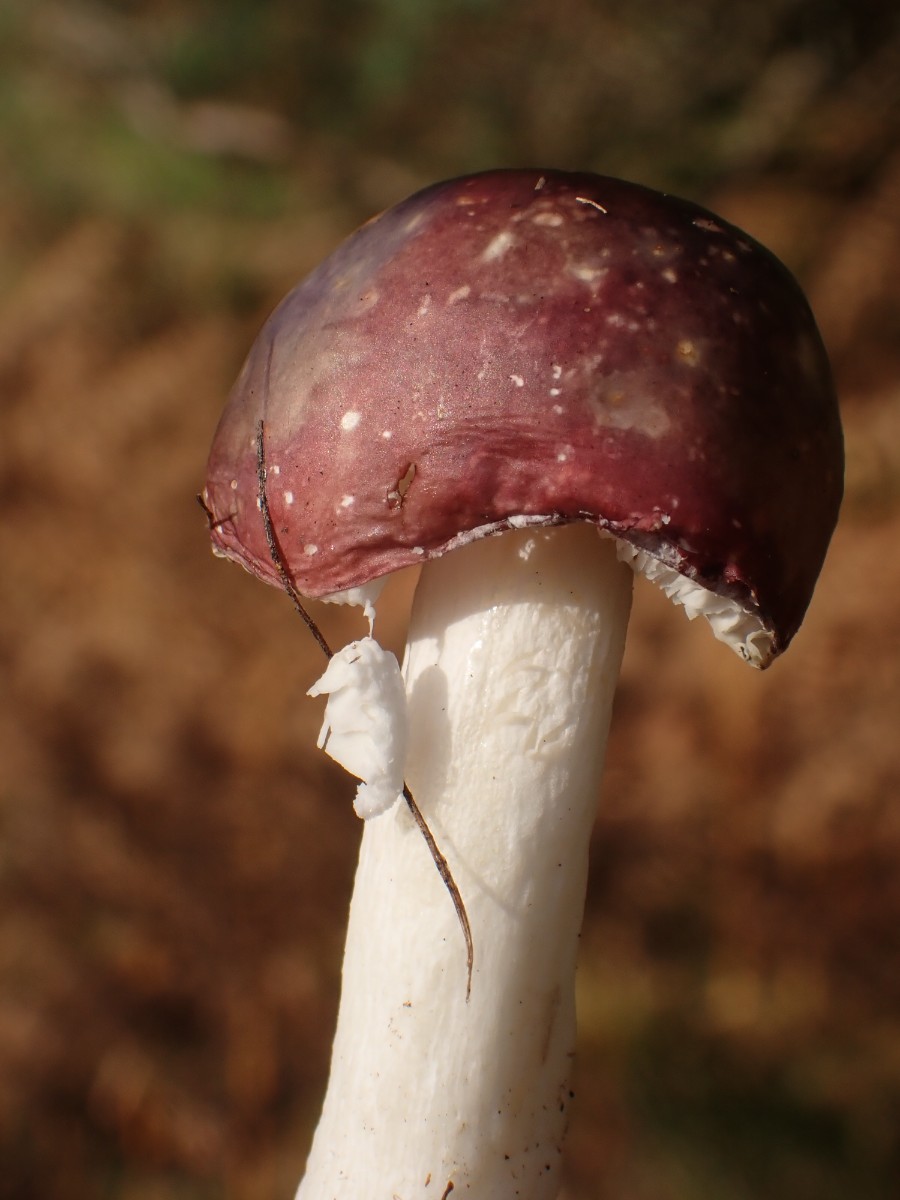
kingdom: Fungi
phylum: Basidiomycota
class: Agaricomycetes
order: Russulales
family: Russulaceae
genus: Russula
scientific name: Russula
